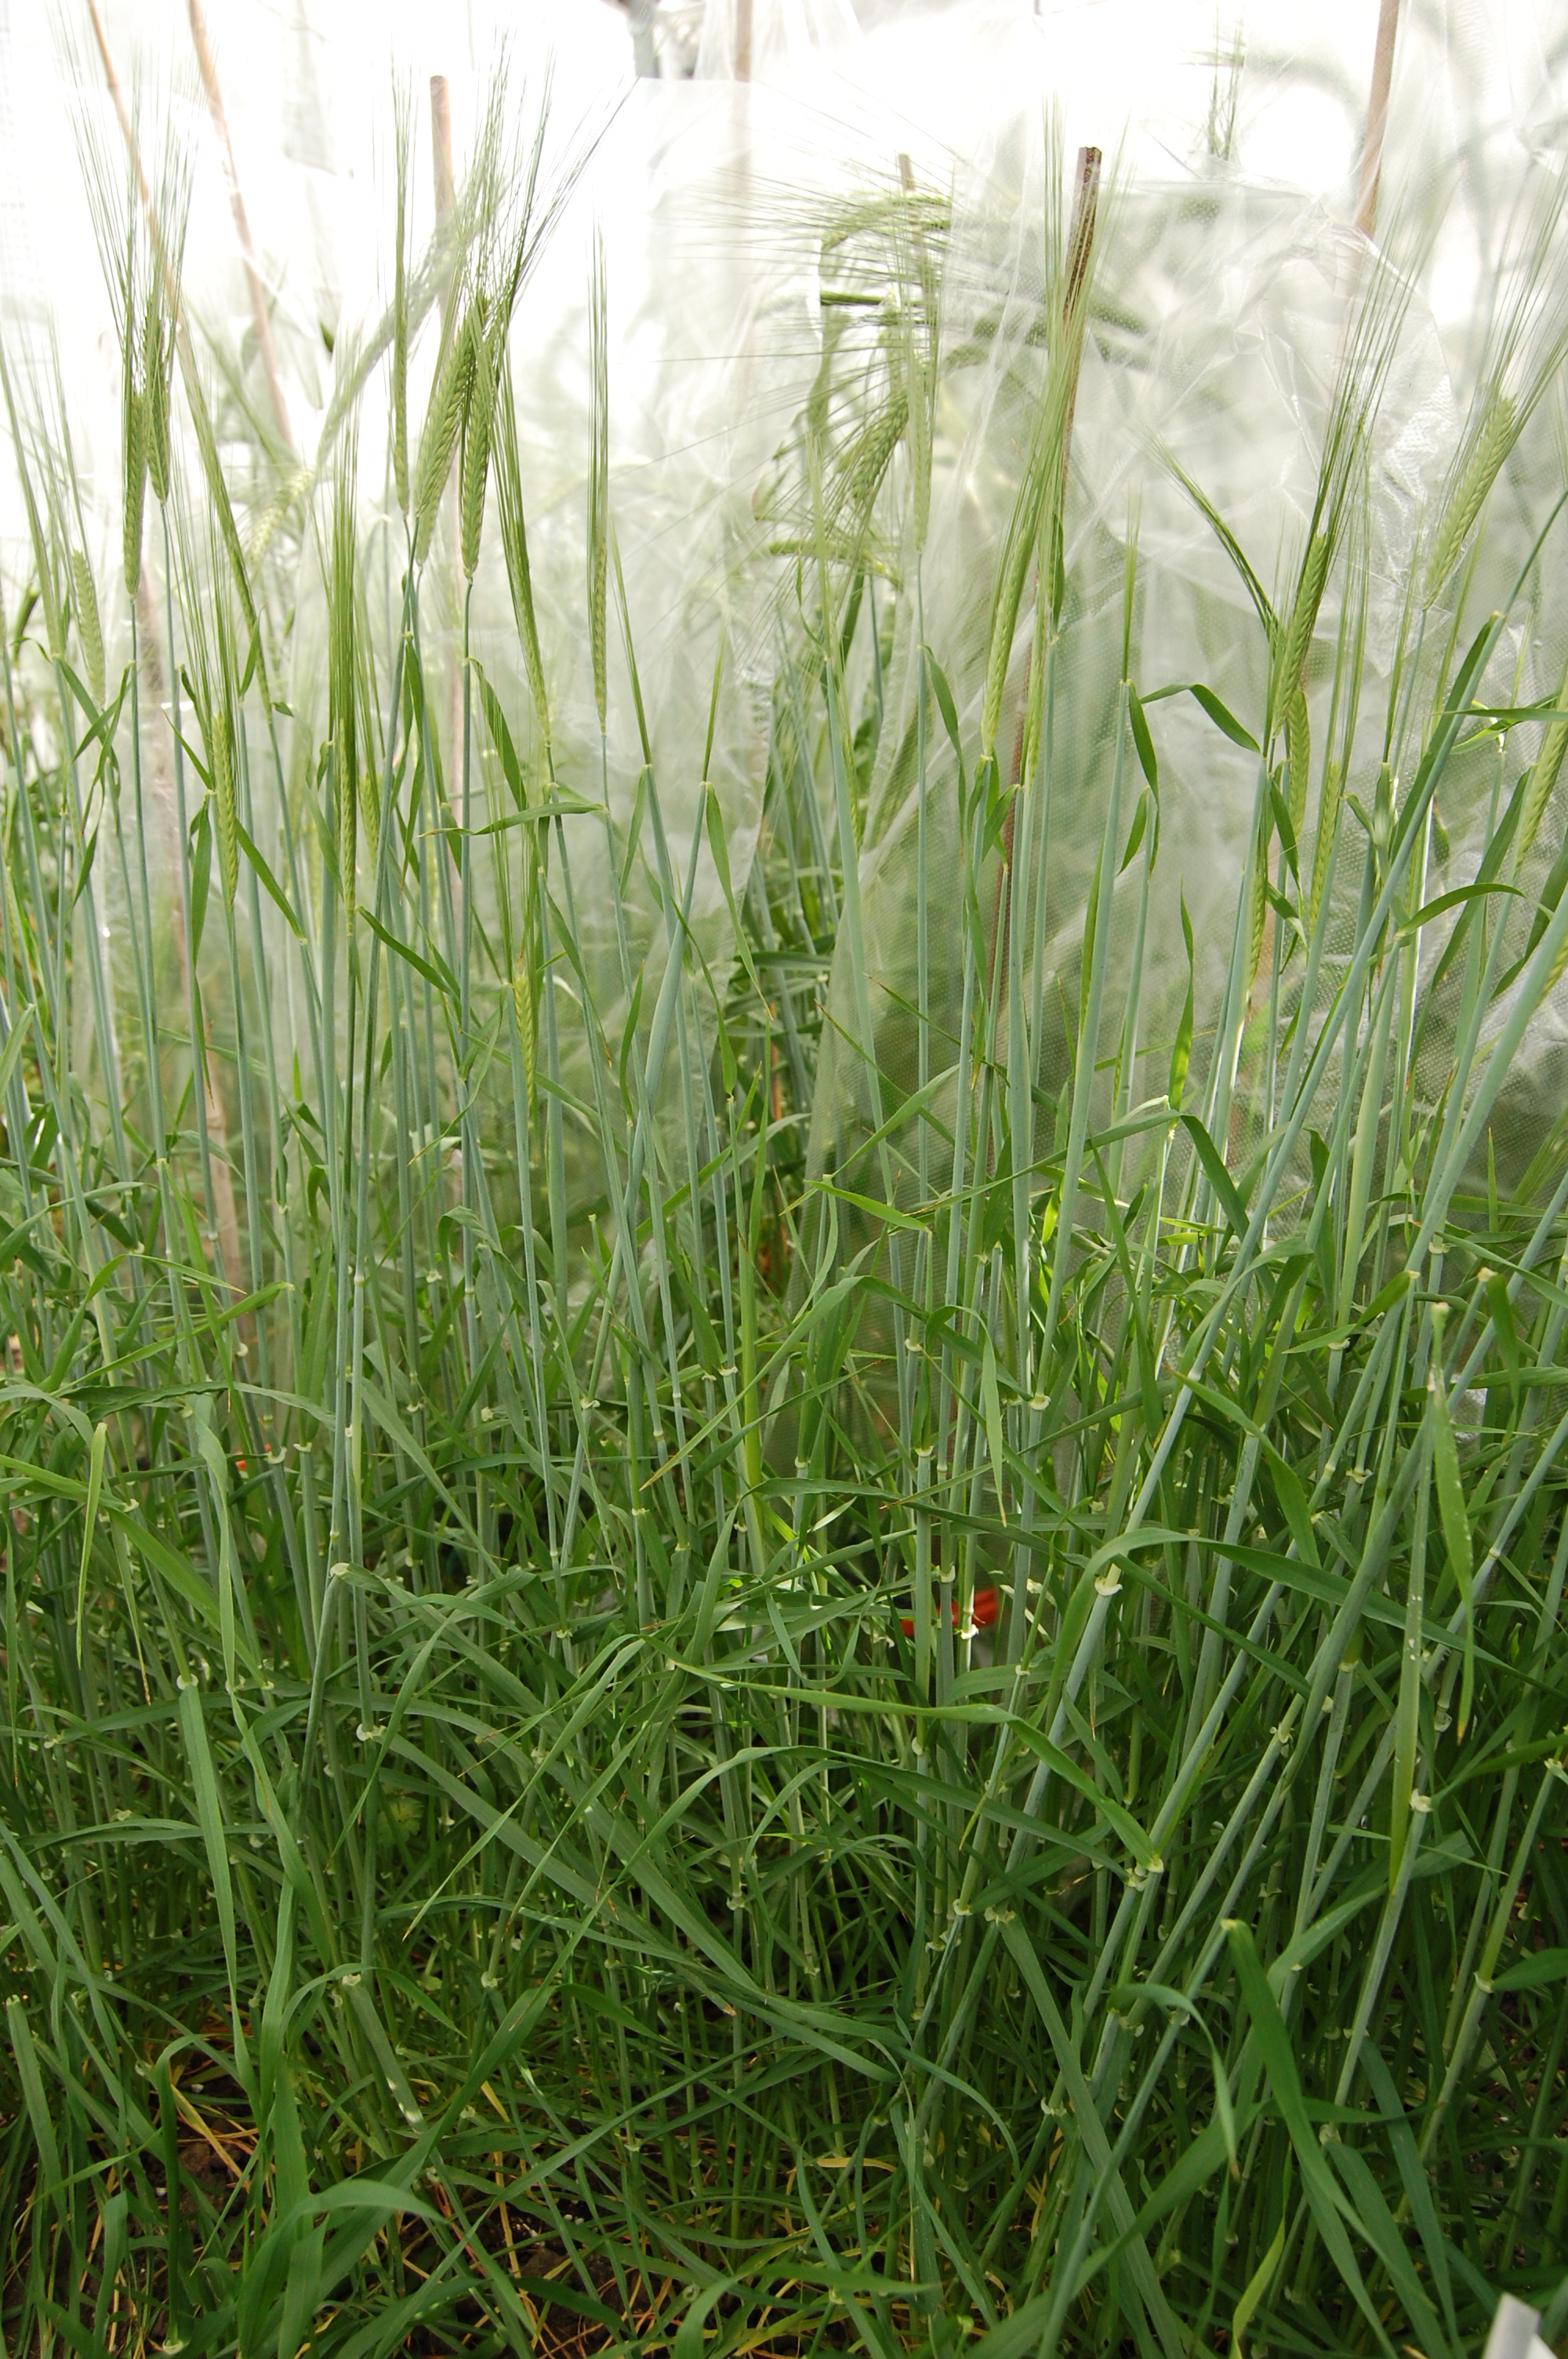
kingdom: Plantae
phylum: Tracheophyta
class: Liliopsida
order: Poales
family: Poaceae
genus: Hordeum
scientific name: Hordeum vulgare
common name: Common barley
